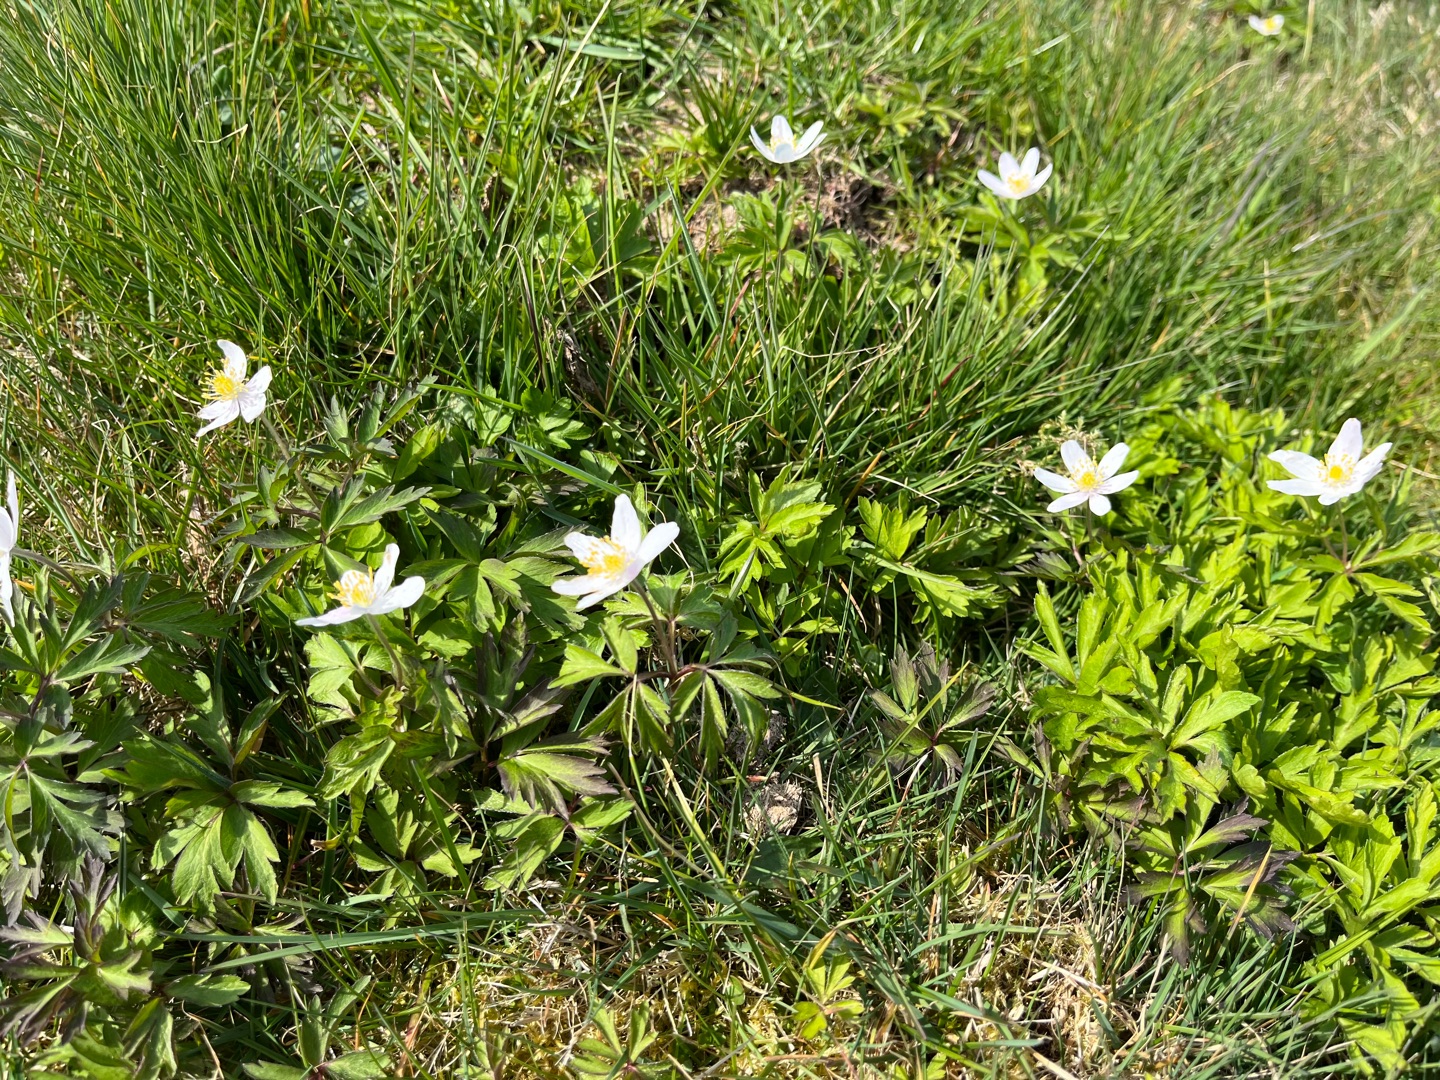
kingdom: Plantae
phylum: Tracheophyta
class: Magnoliopsida
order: Ranunculales
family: Ranunculaceae
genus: Anemone
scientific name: Anemone nemorosa
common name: Hvid anemone
